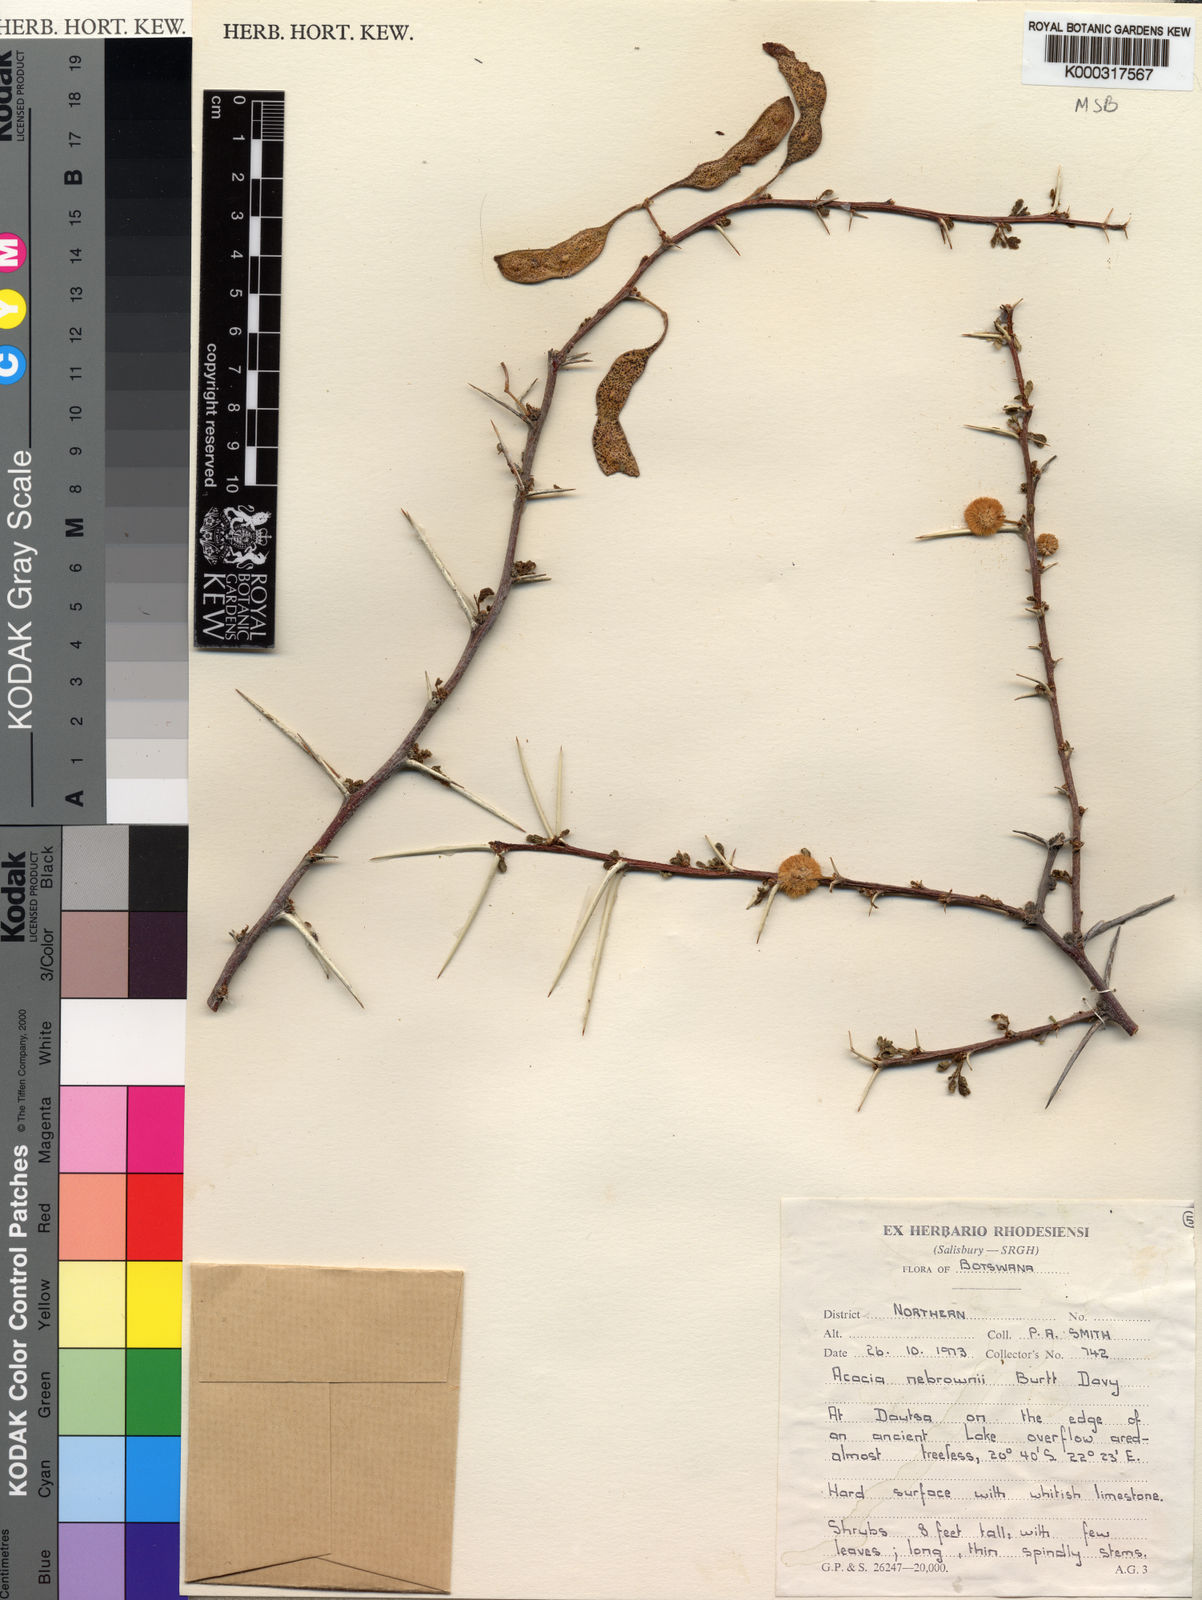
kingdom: Plantae
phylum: Tracheophyta
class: Magnoliopsida
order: Fabales
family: Fabaceae
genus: Vachellia
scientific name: Vachellia nebrownii
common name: Water acacia
